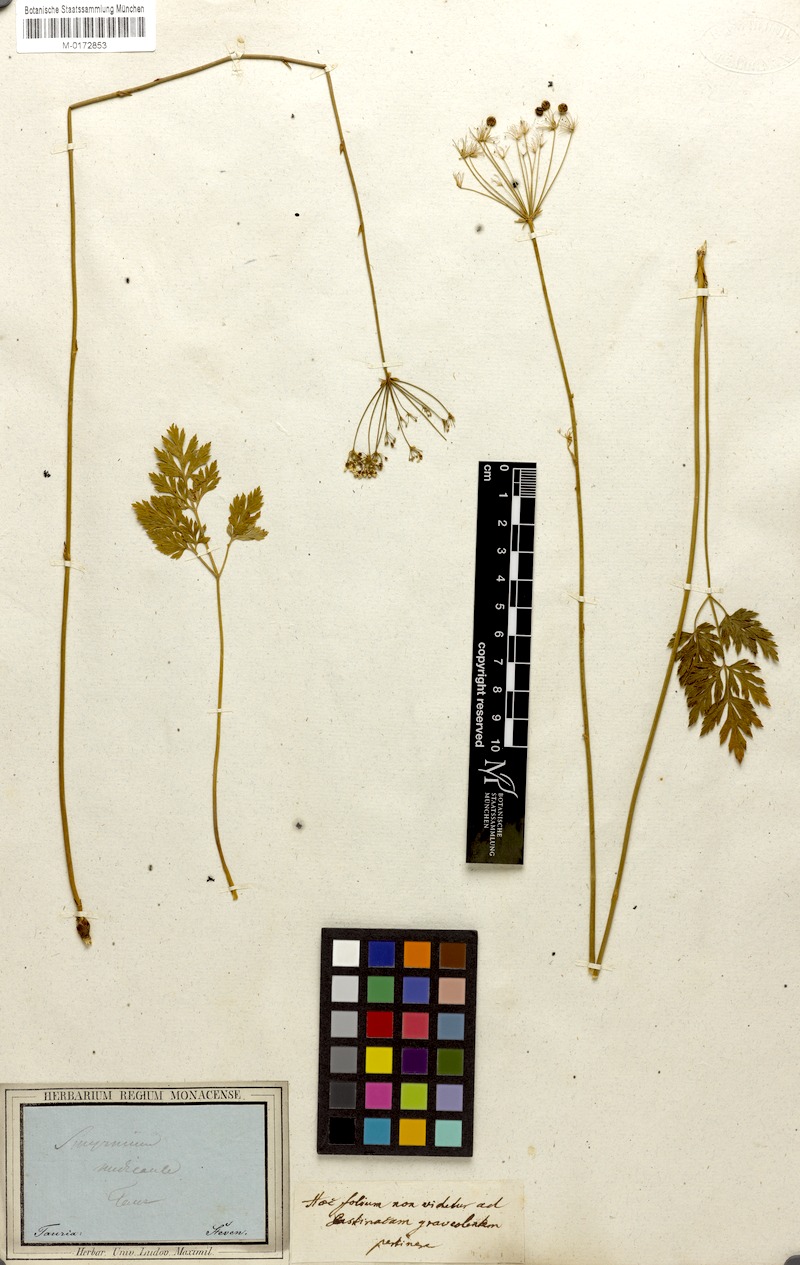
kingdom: Plantae
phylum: Tracheophyta
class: Magnoliopsida
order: Apiales
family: Apiaceae
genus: Physospermum
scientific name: Physospermum cornubiense
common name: Bladderseed
